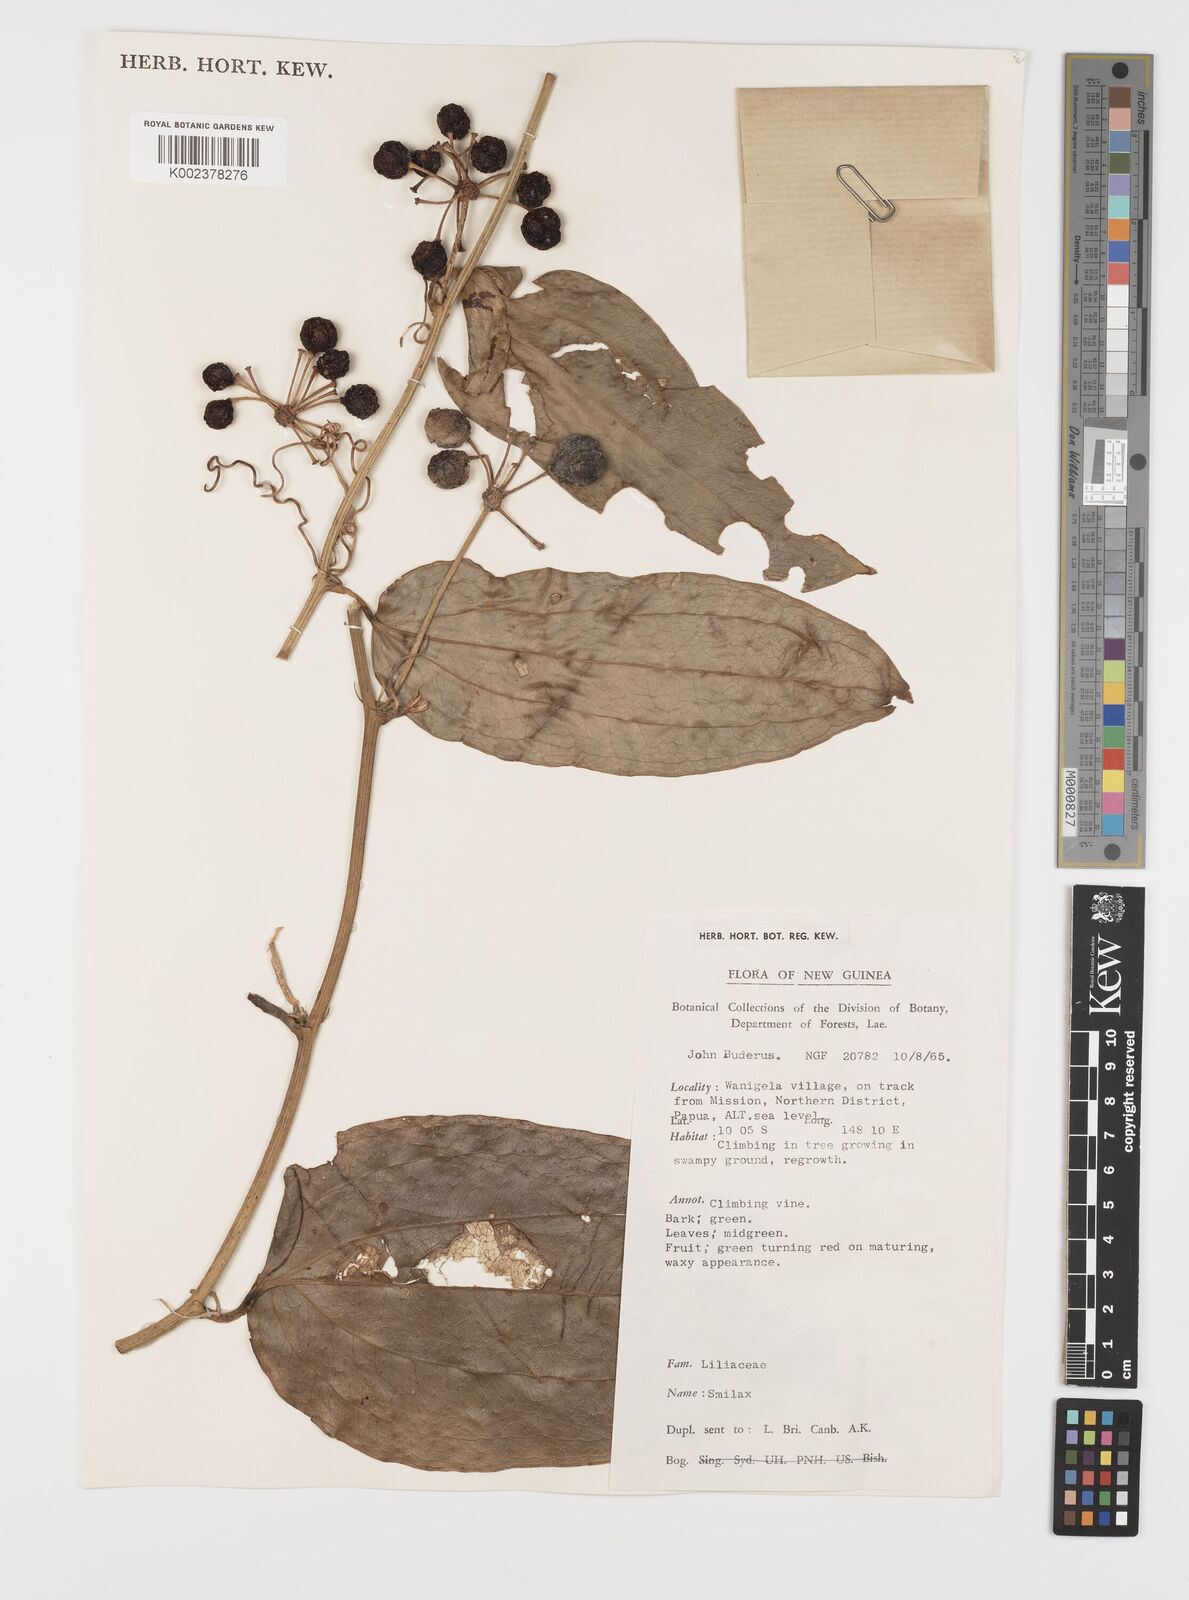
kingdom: Plantae
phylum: Tracheophyta
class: Liliopsida
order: Liliales
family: Smilacaceae
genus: Smilax
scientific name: Smilax
